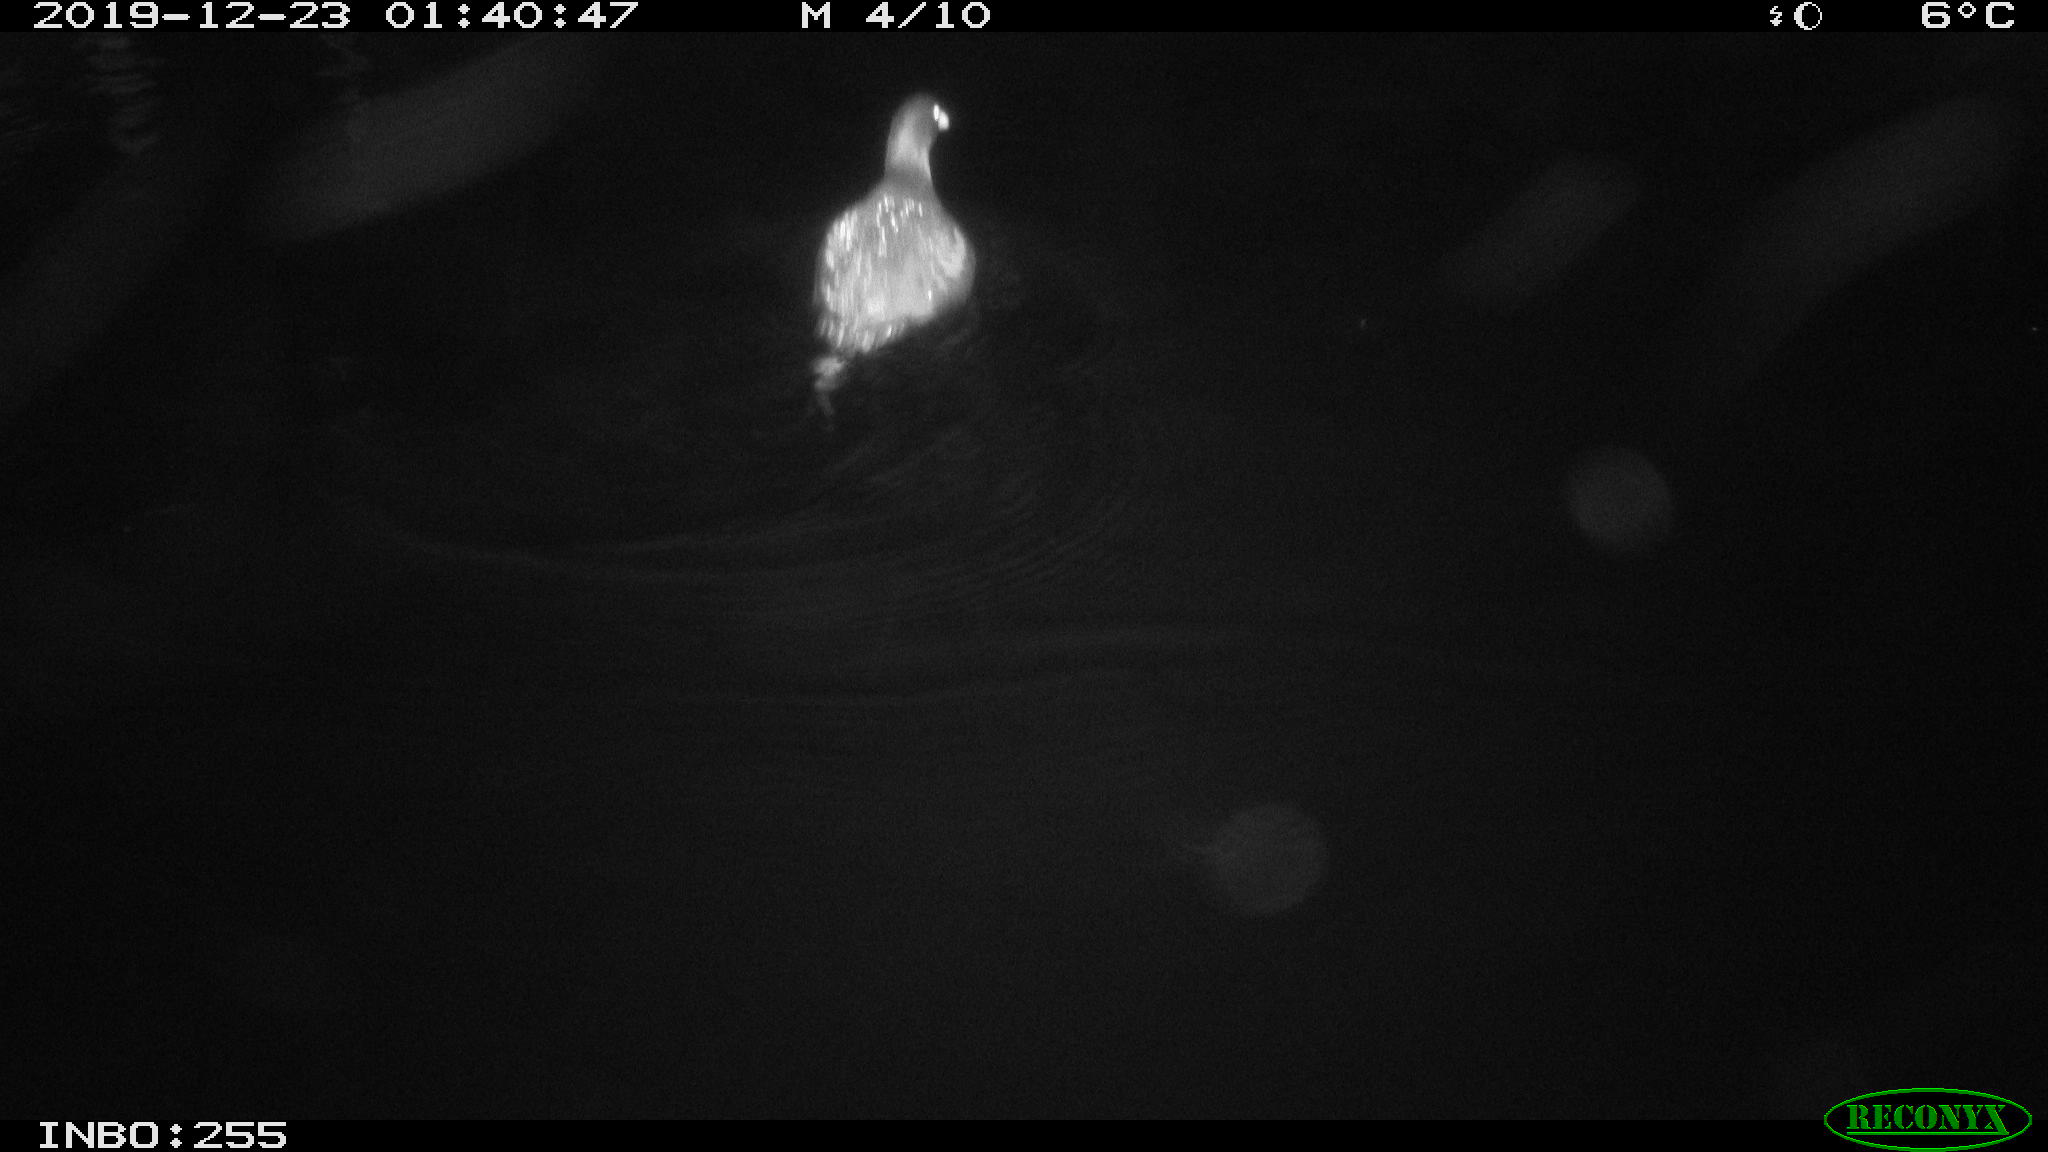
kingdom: Animalia
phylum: Chordata
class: Aves
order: Gruiformes
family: Rallidae
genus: Gallinula
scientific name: Gallinula chloropus
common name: Common moorhen
